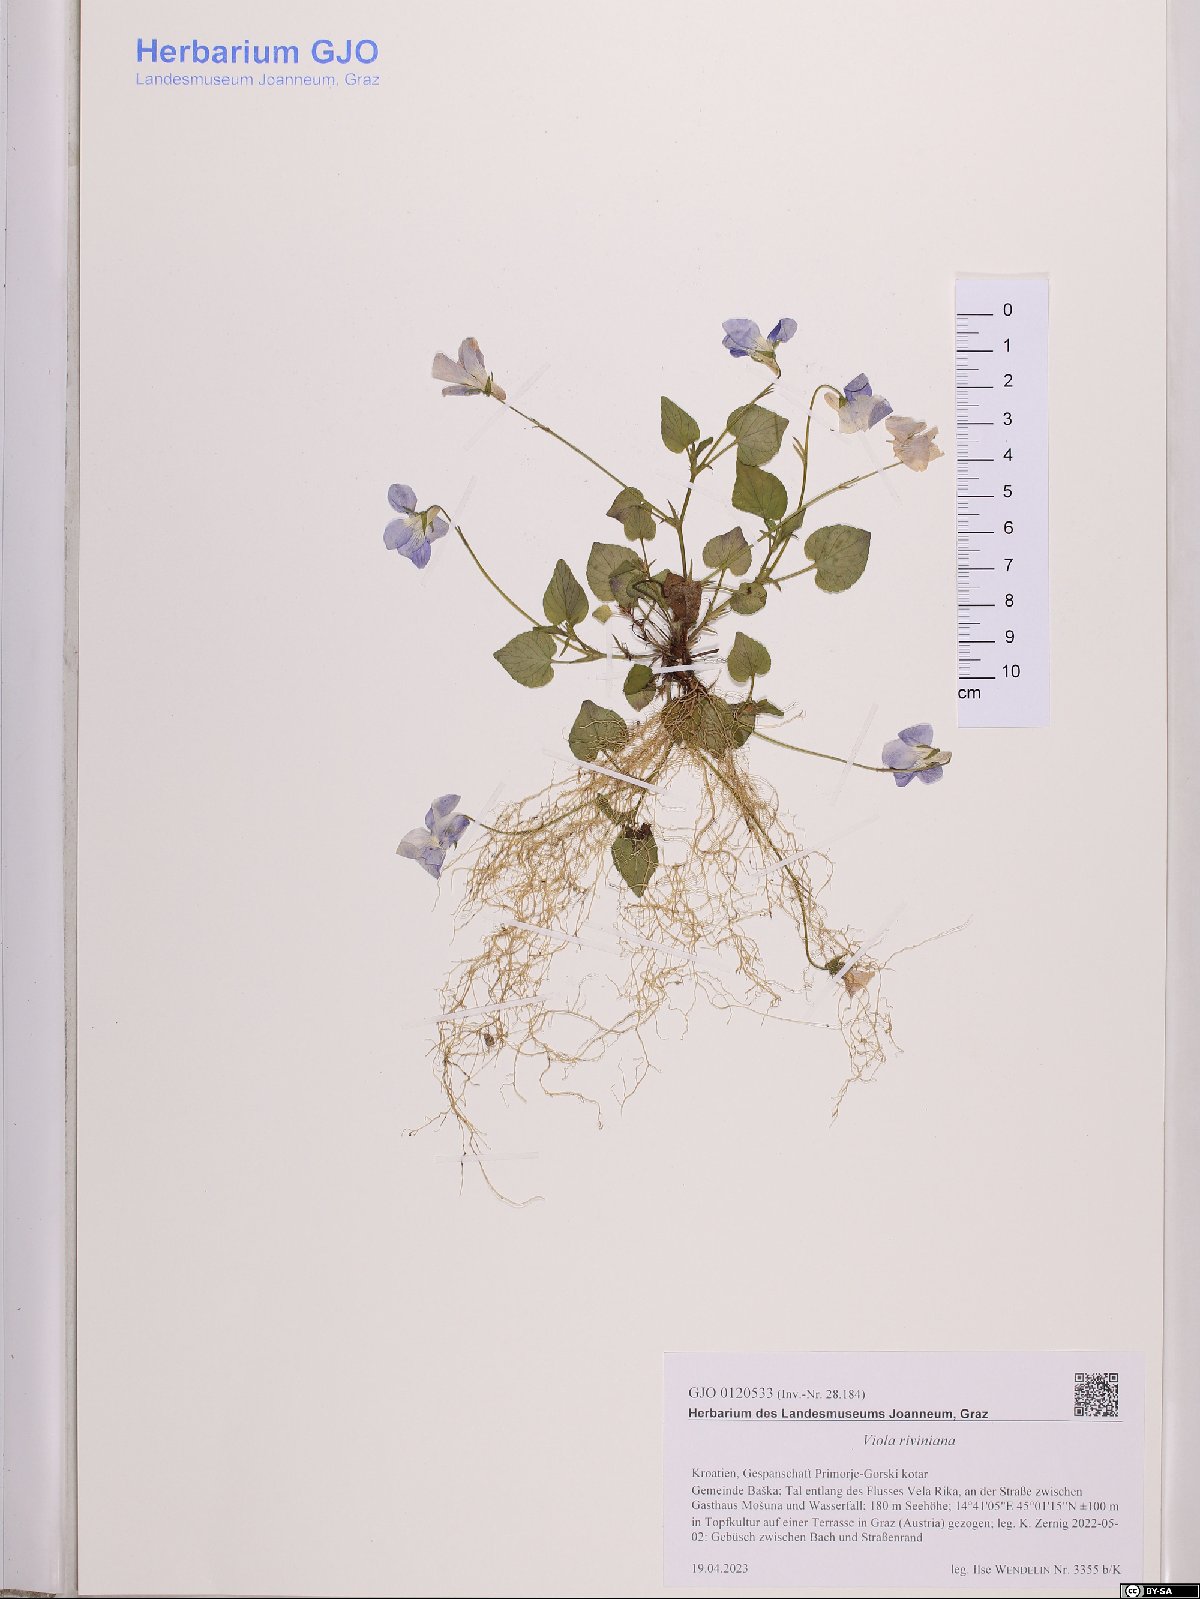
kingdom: Plantae
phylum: Tracheophyta
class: Magnoliopsida
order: Malpighiales
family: Violaceae
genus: Viola
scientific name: Viola riviniana
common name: Common dog-violet
